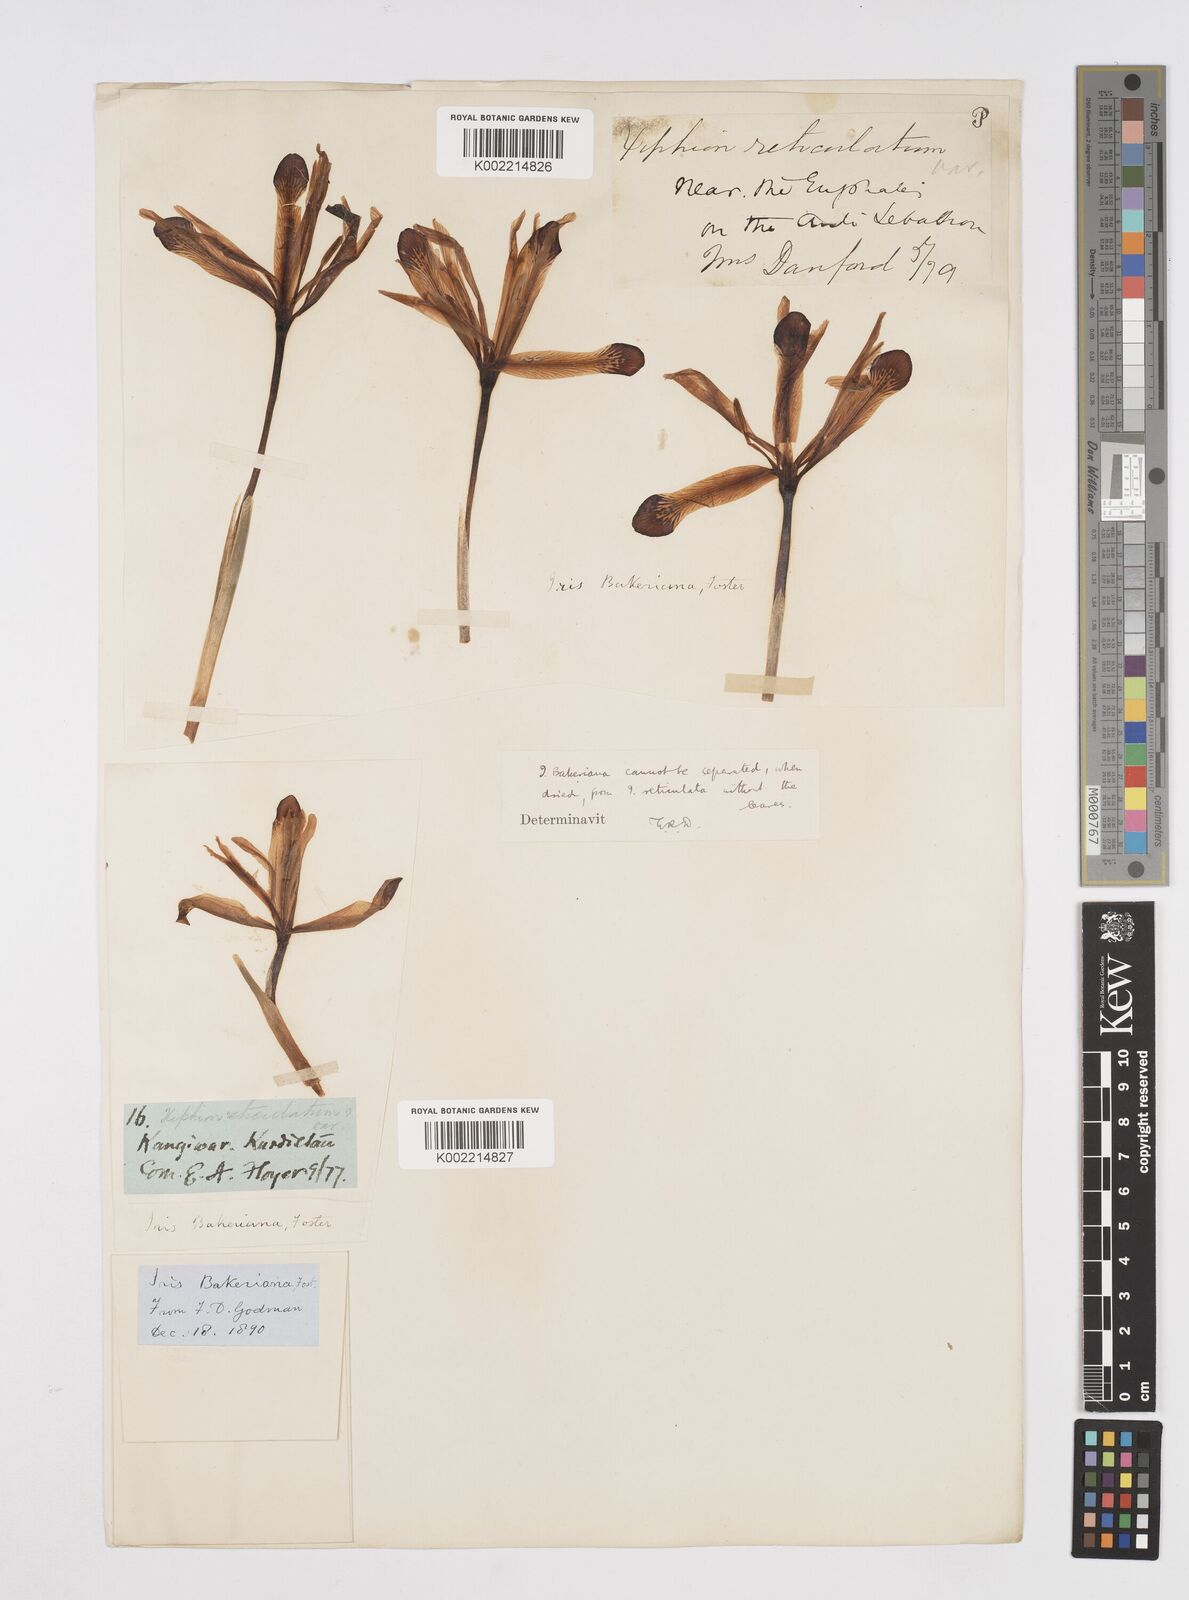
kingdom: Plantae
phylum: Tracheophyta
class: Liliopsida
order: Asparagales
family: Iridaceae
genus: Iris
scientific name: Iris reticulata
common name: Netted iris
